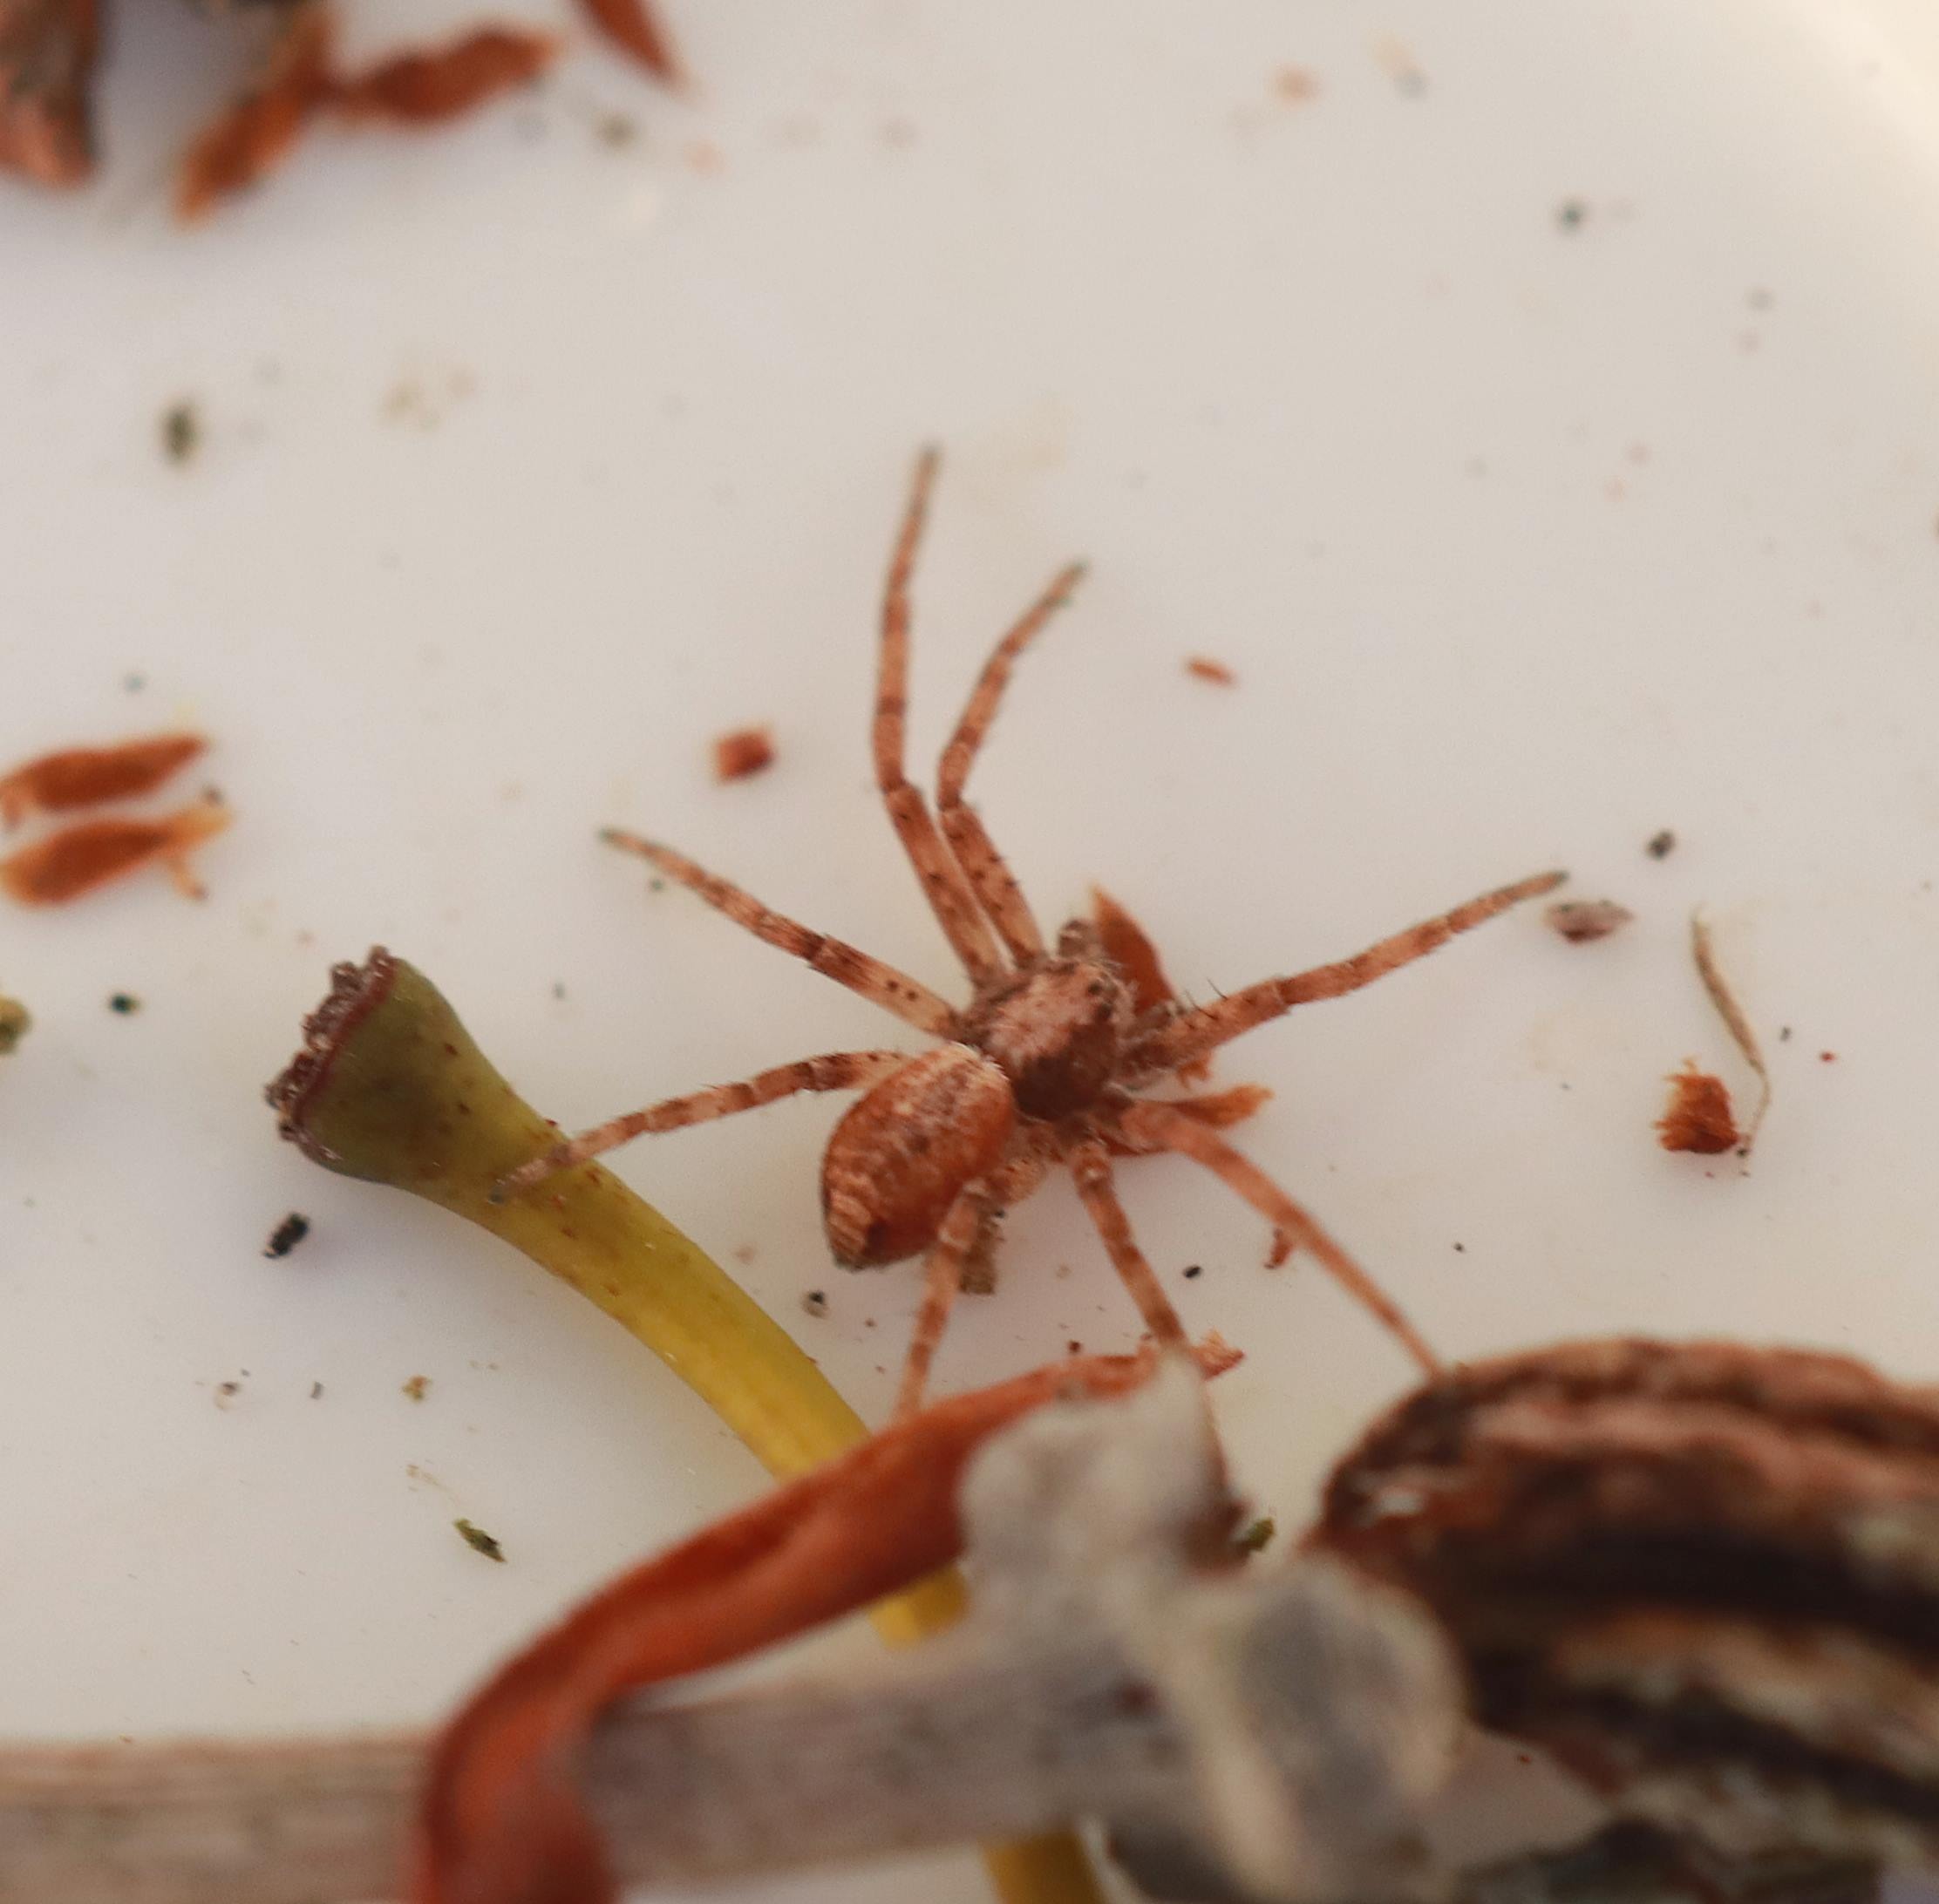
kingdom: Animalia
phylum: Arthropoda
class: Arachnida
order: Araneae
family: Philodromidae
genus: Philodromus
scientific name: Philodromus
